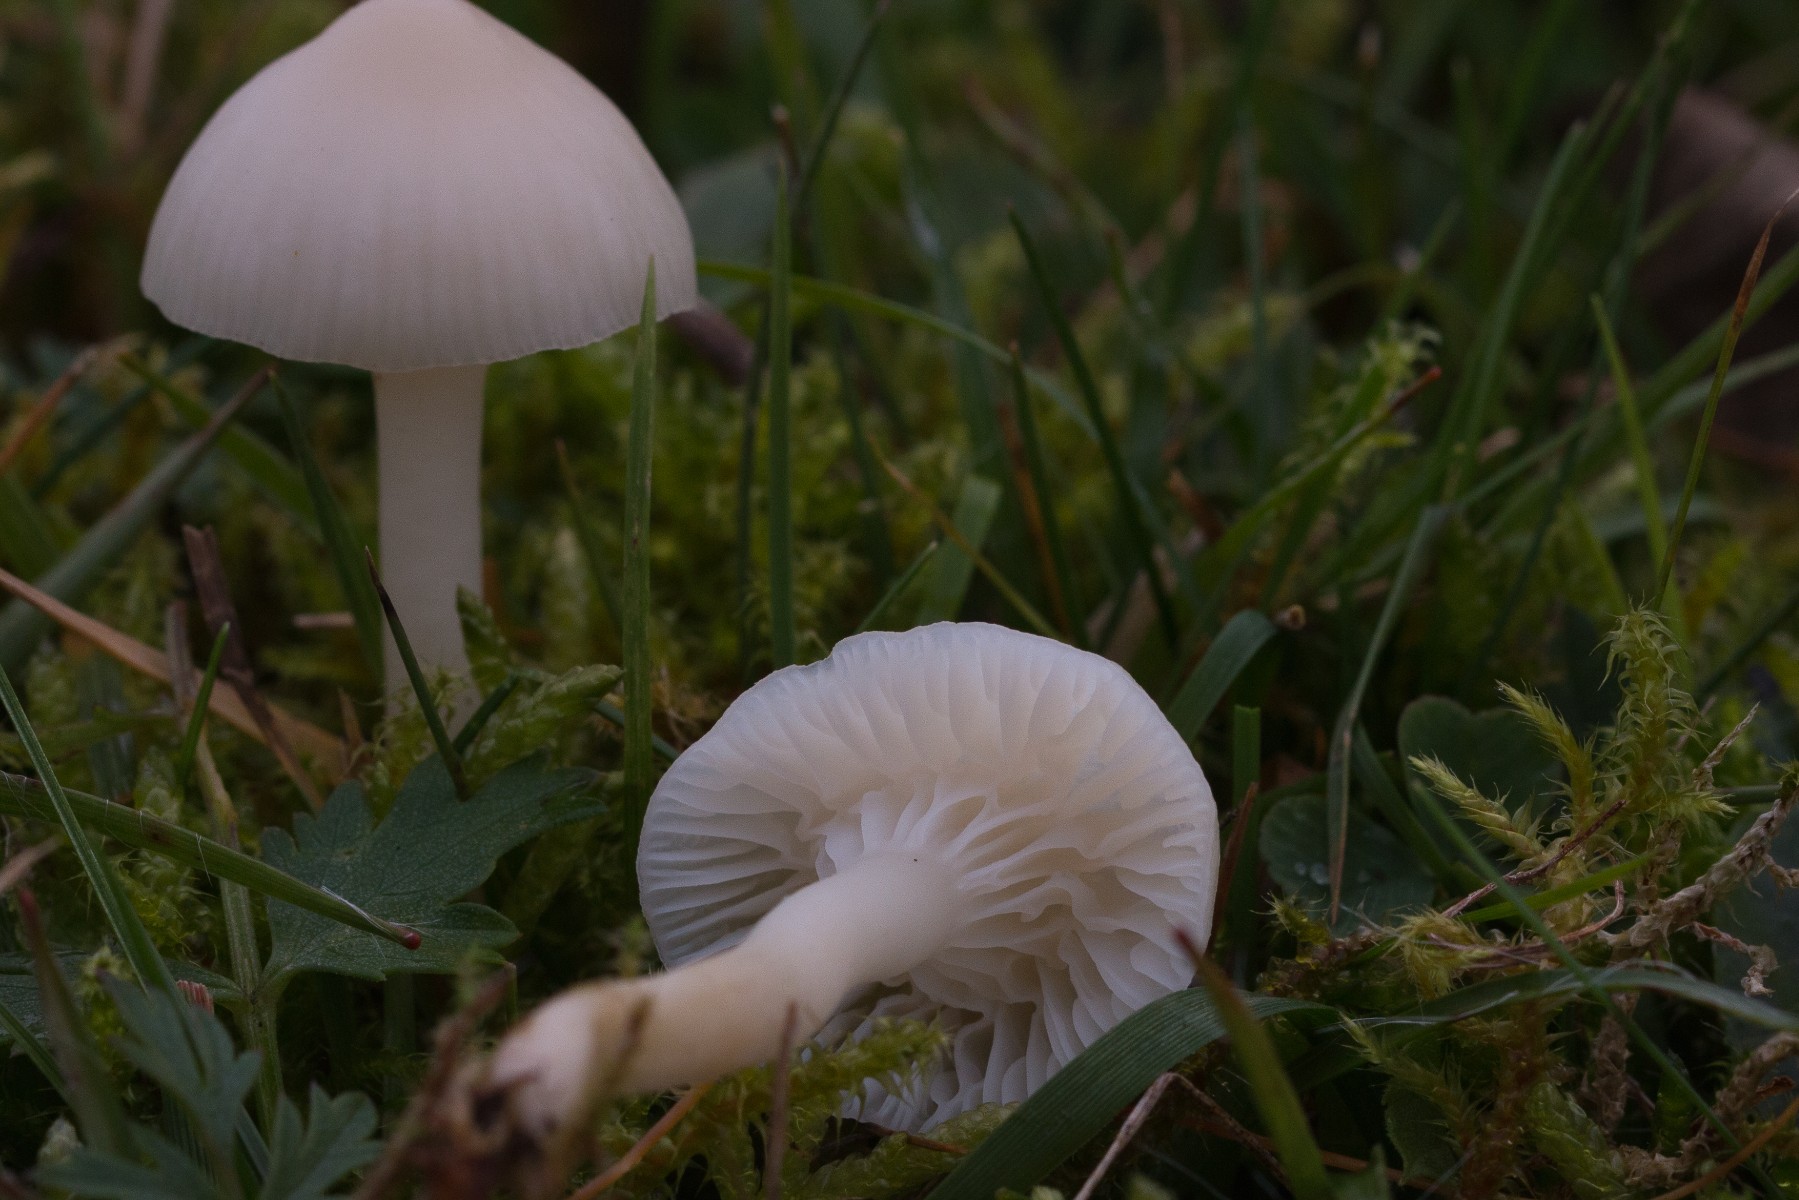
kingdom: Fungi
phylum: Basidiomycota
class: Agaricomycetes
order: Agaricales
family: Hygrophoraceae
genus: Cuphophyllus
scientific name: Cuphophyllus virgineus
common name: snehvid vokshat
